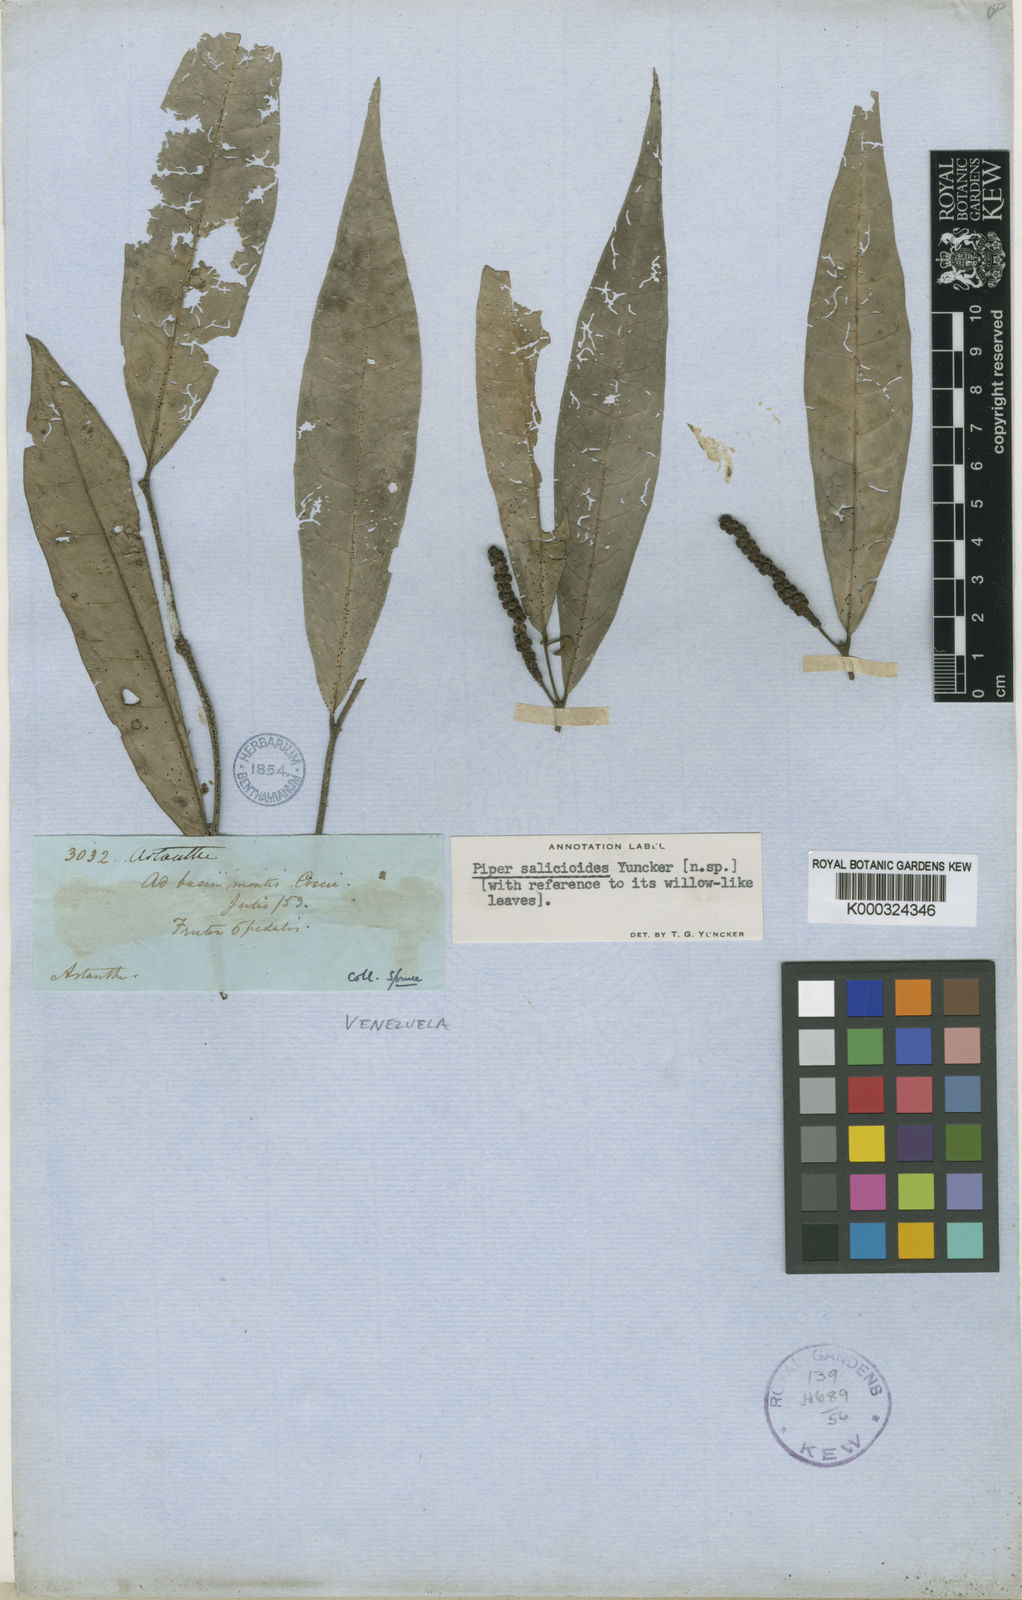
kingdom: Plantae
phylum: Tracheophyta
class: Magnoliopsida
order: Piperales
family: Piperaceae
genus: Piper
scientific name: Piper salicoides
